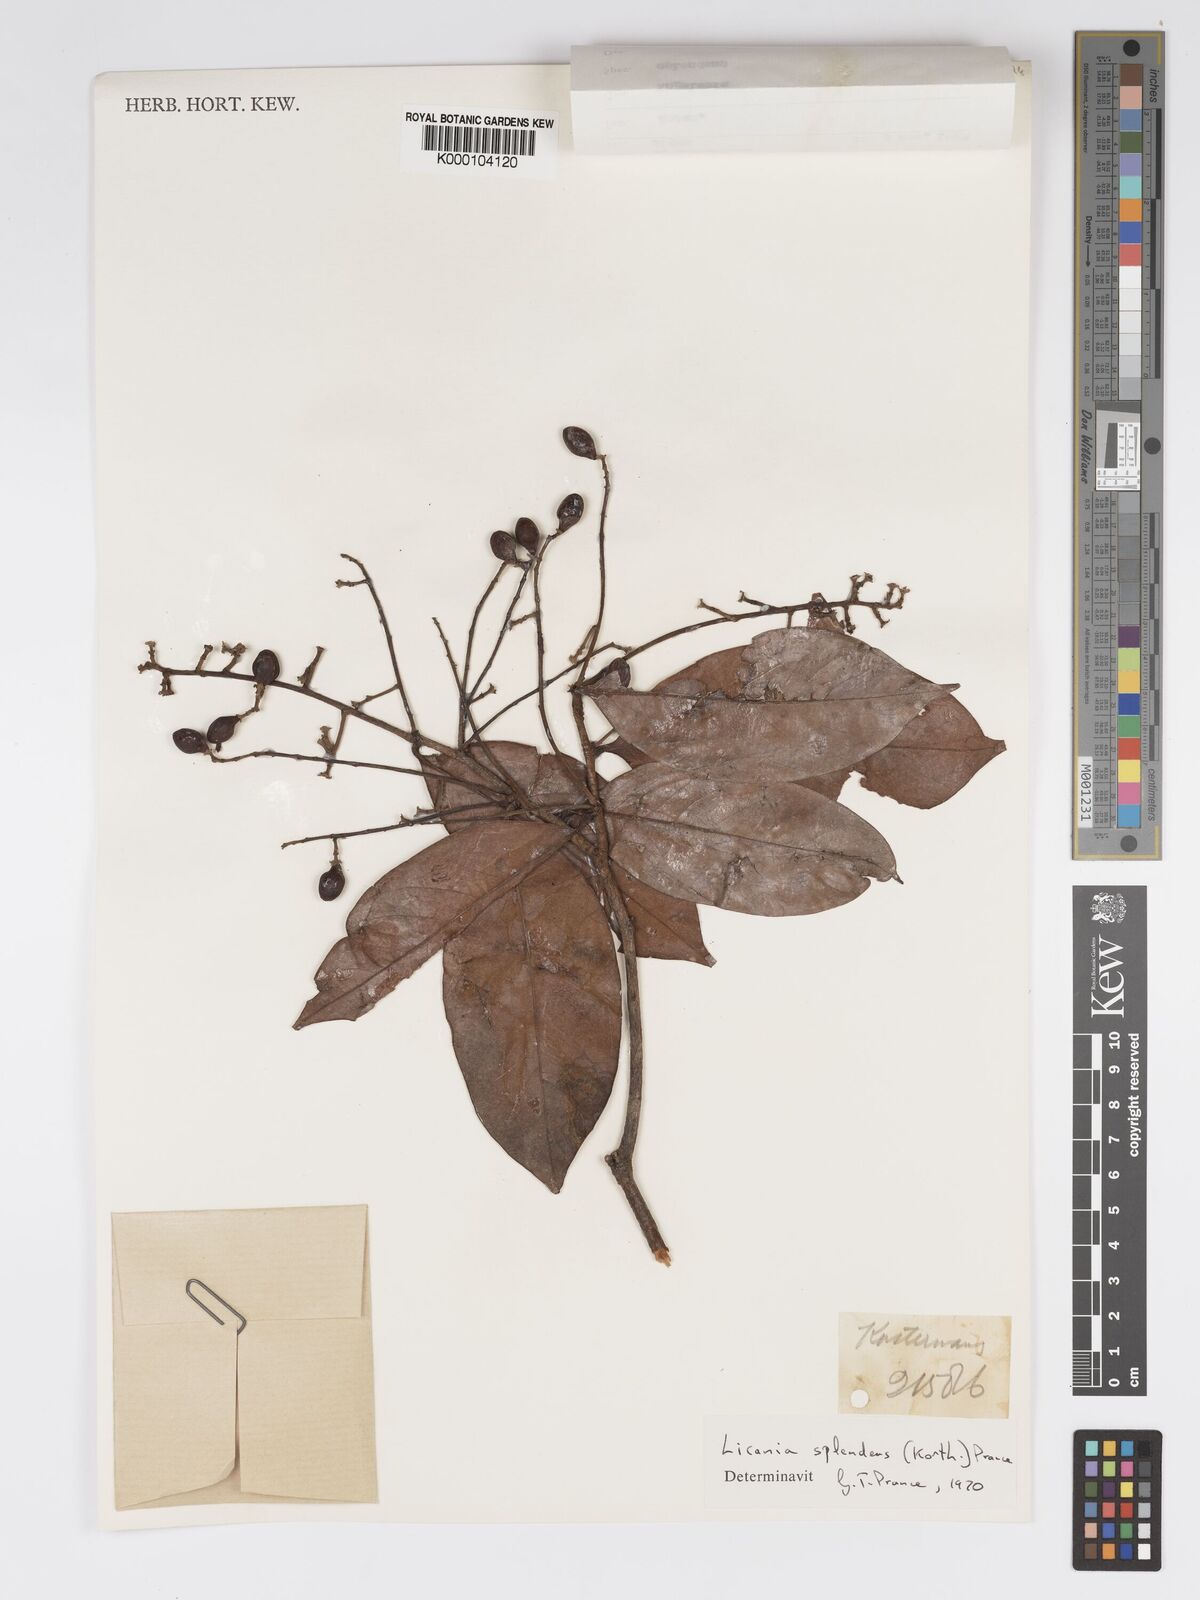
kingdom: Plantae
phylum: Tracheophyta
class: Magnoliopsida
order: Malpighiales
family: Chrysobalanaceae
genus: Angelesia
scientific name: Angelesia splendens
